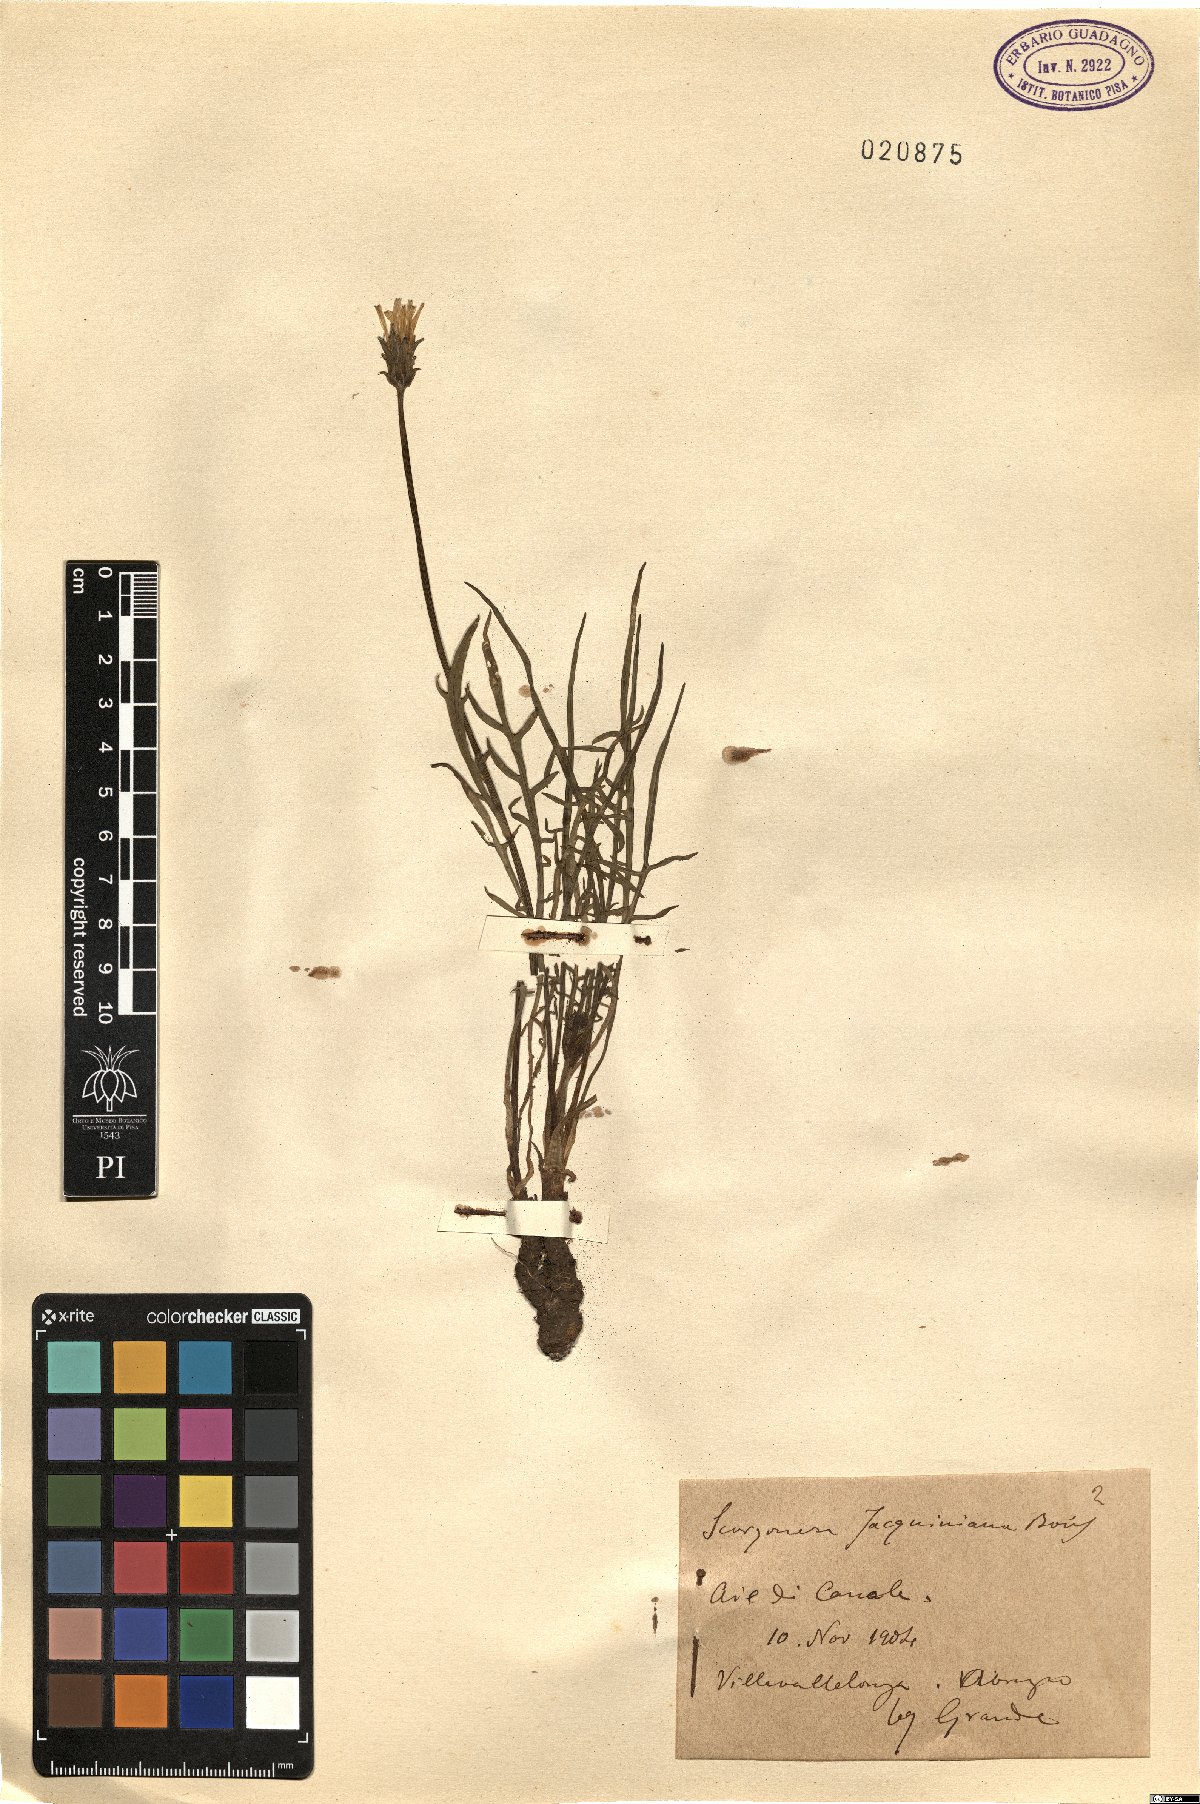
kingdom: Plantae
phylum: Tracheophyta
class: Magnoliopsida
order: Asterales
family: Asteraceae
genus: Scorzonera
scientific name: Scorzonera cana
